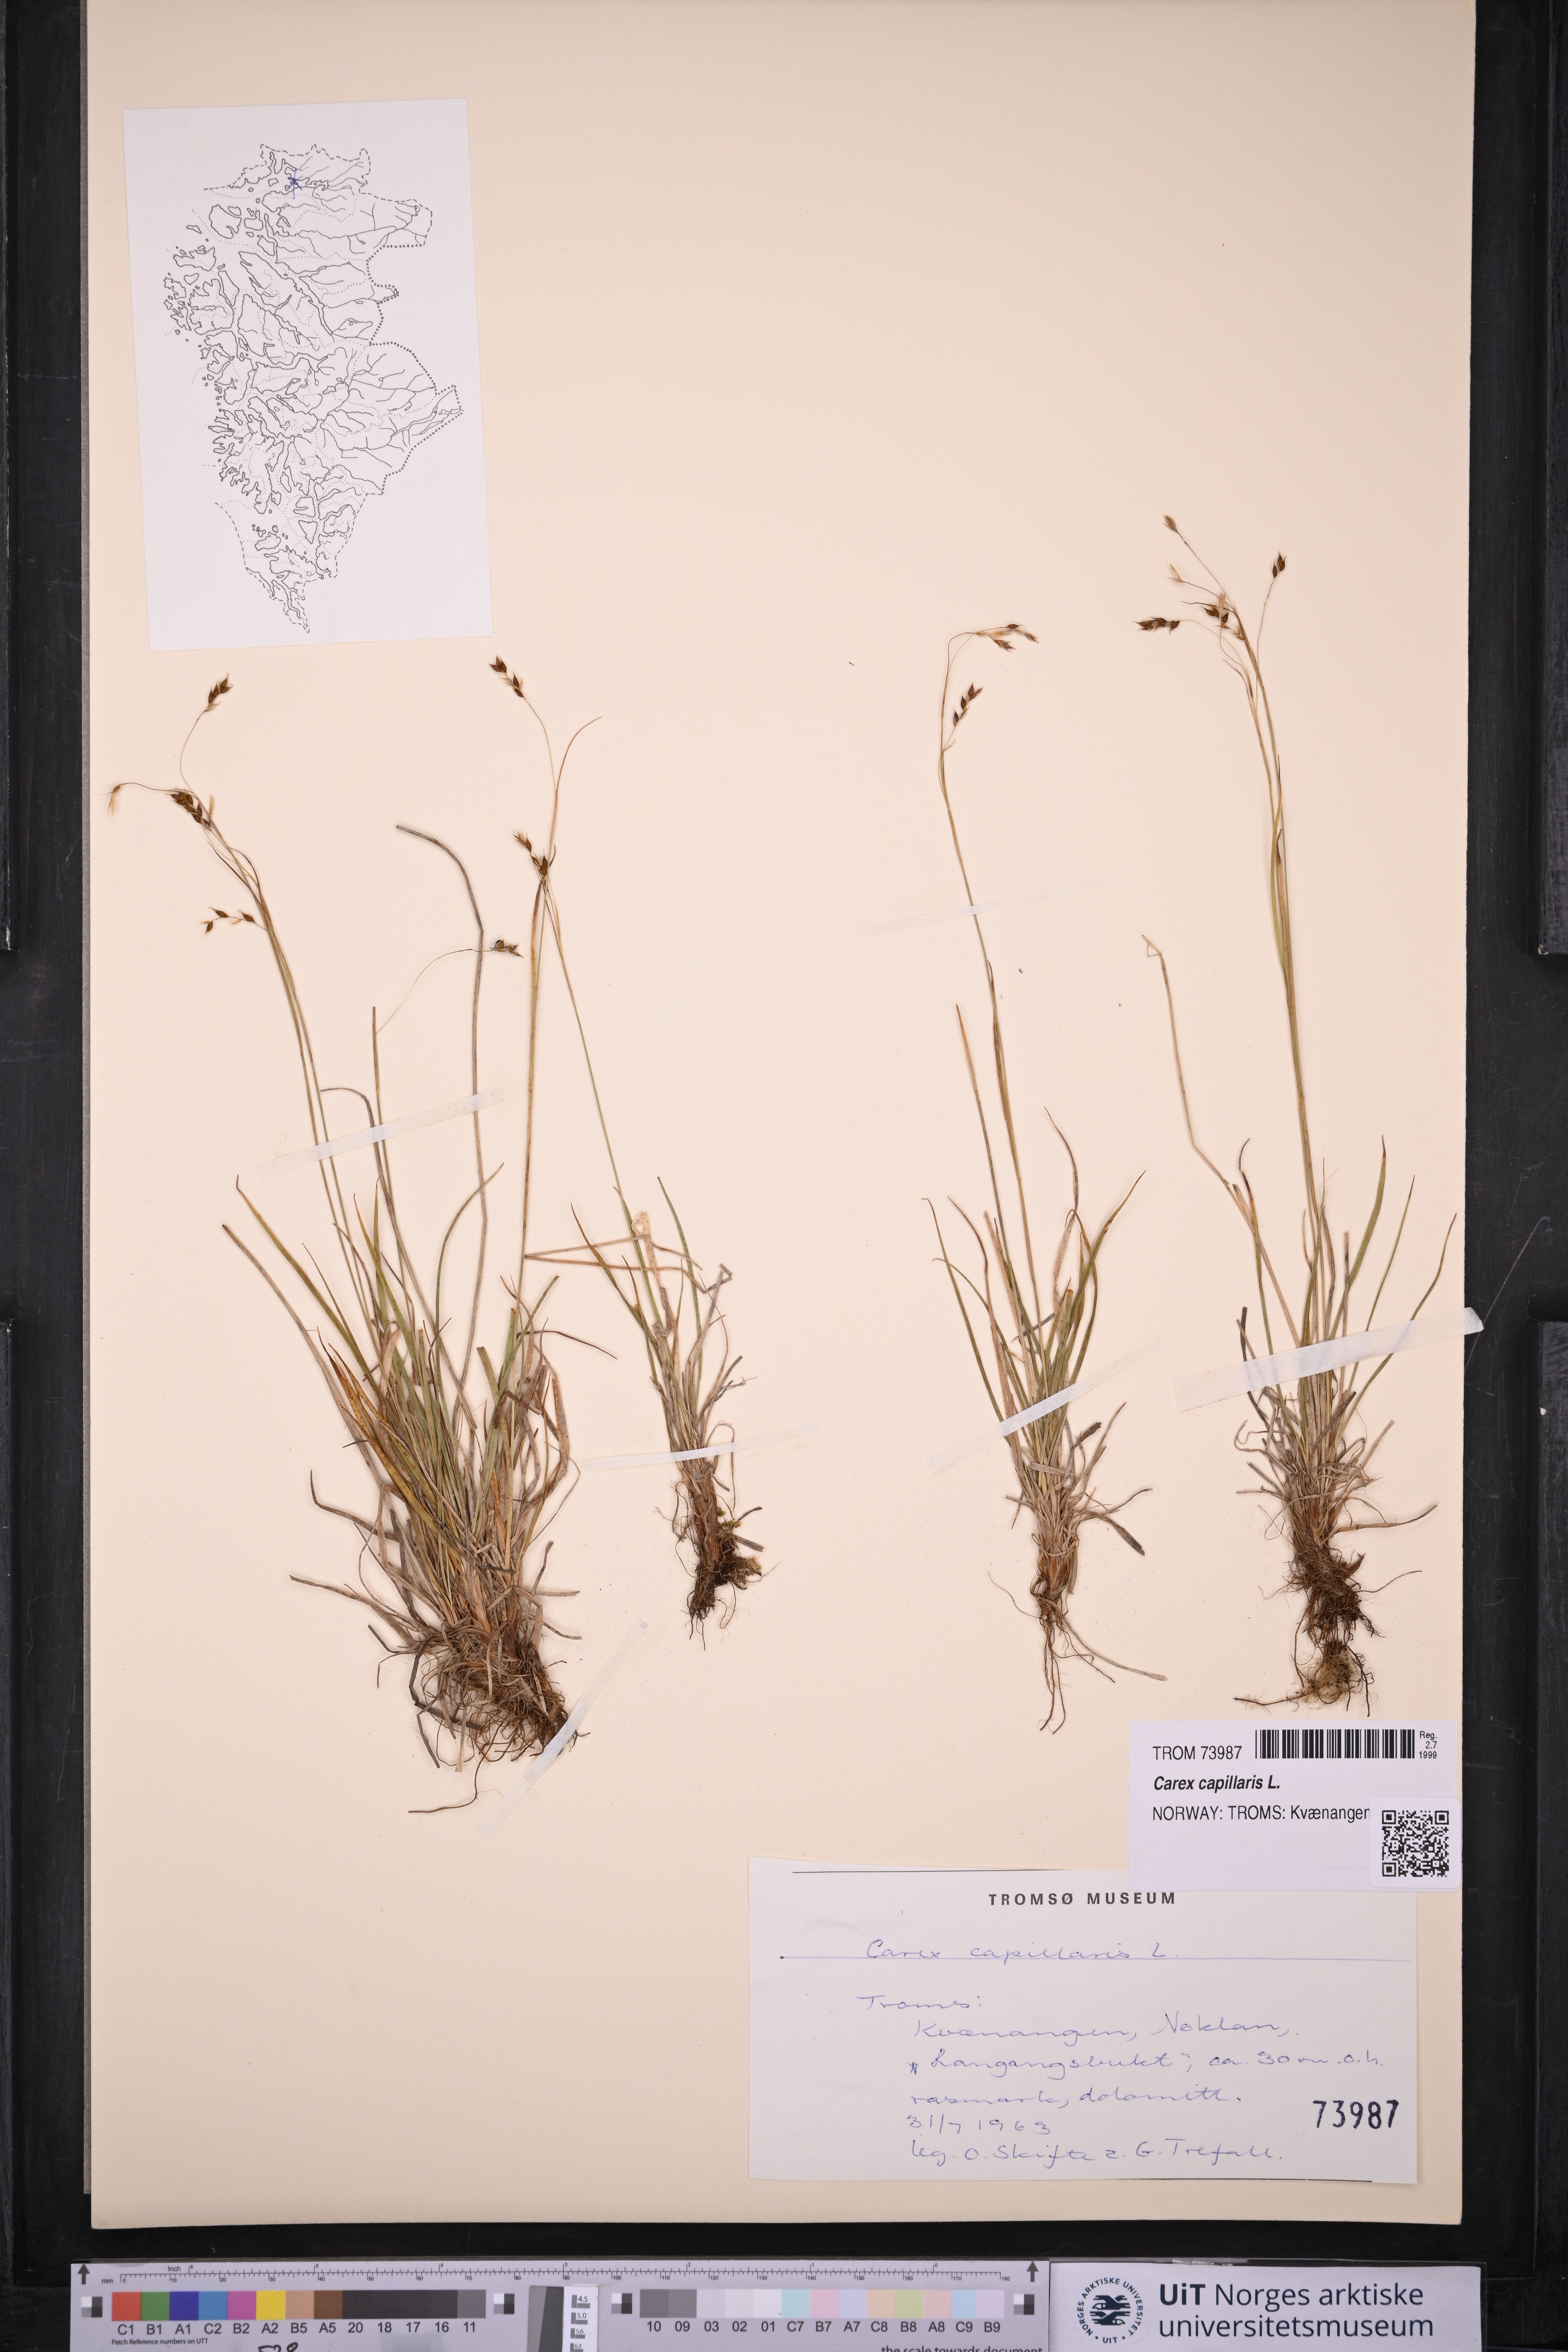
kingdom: Plantae
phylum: Tracheophyta
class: Liliopsida
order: Poales
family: Cyperaceae
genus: Carex
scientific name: Carex capillaris
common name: Hair sedge
